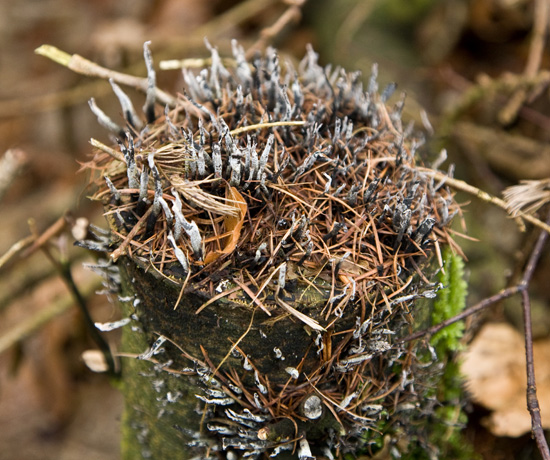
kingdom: Fungi
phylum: Ascomycota
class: Sordariomycetes
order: Xylariales
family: Xylariaceae
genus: Xylaria
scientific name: Xylaria hypoxylon
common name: grenet stødsvamp
